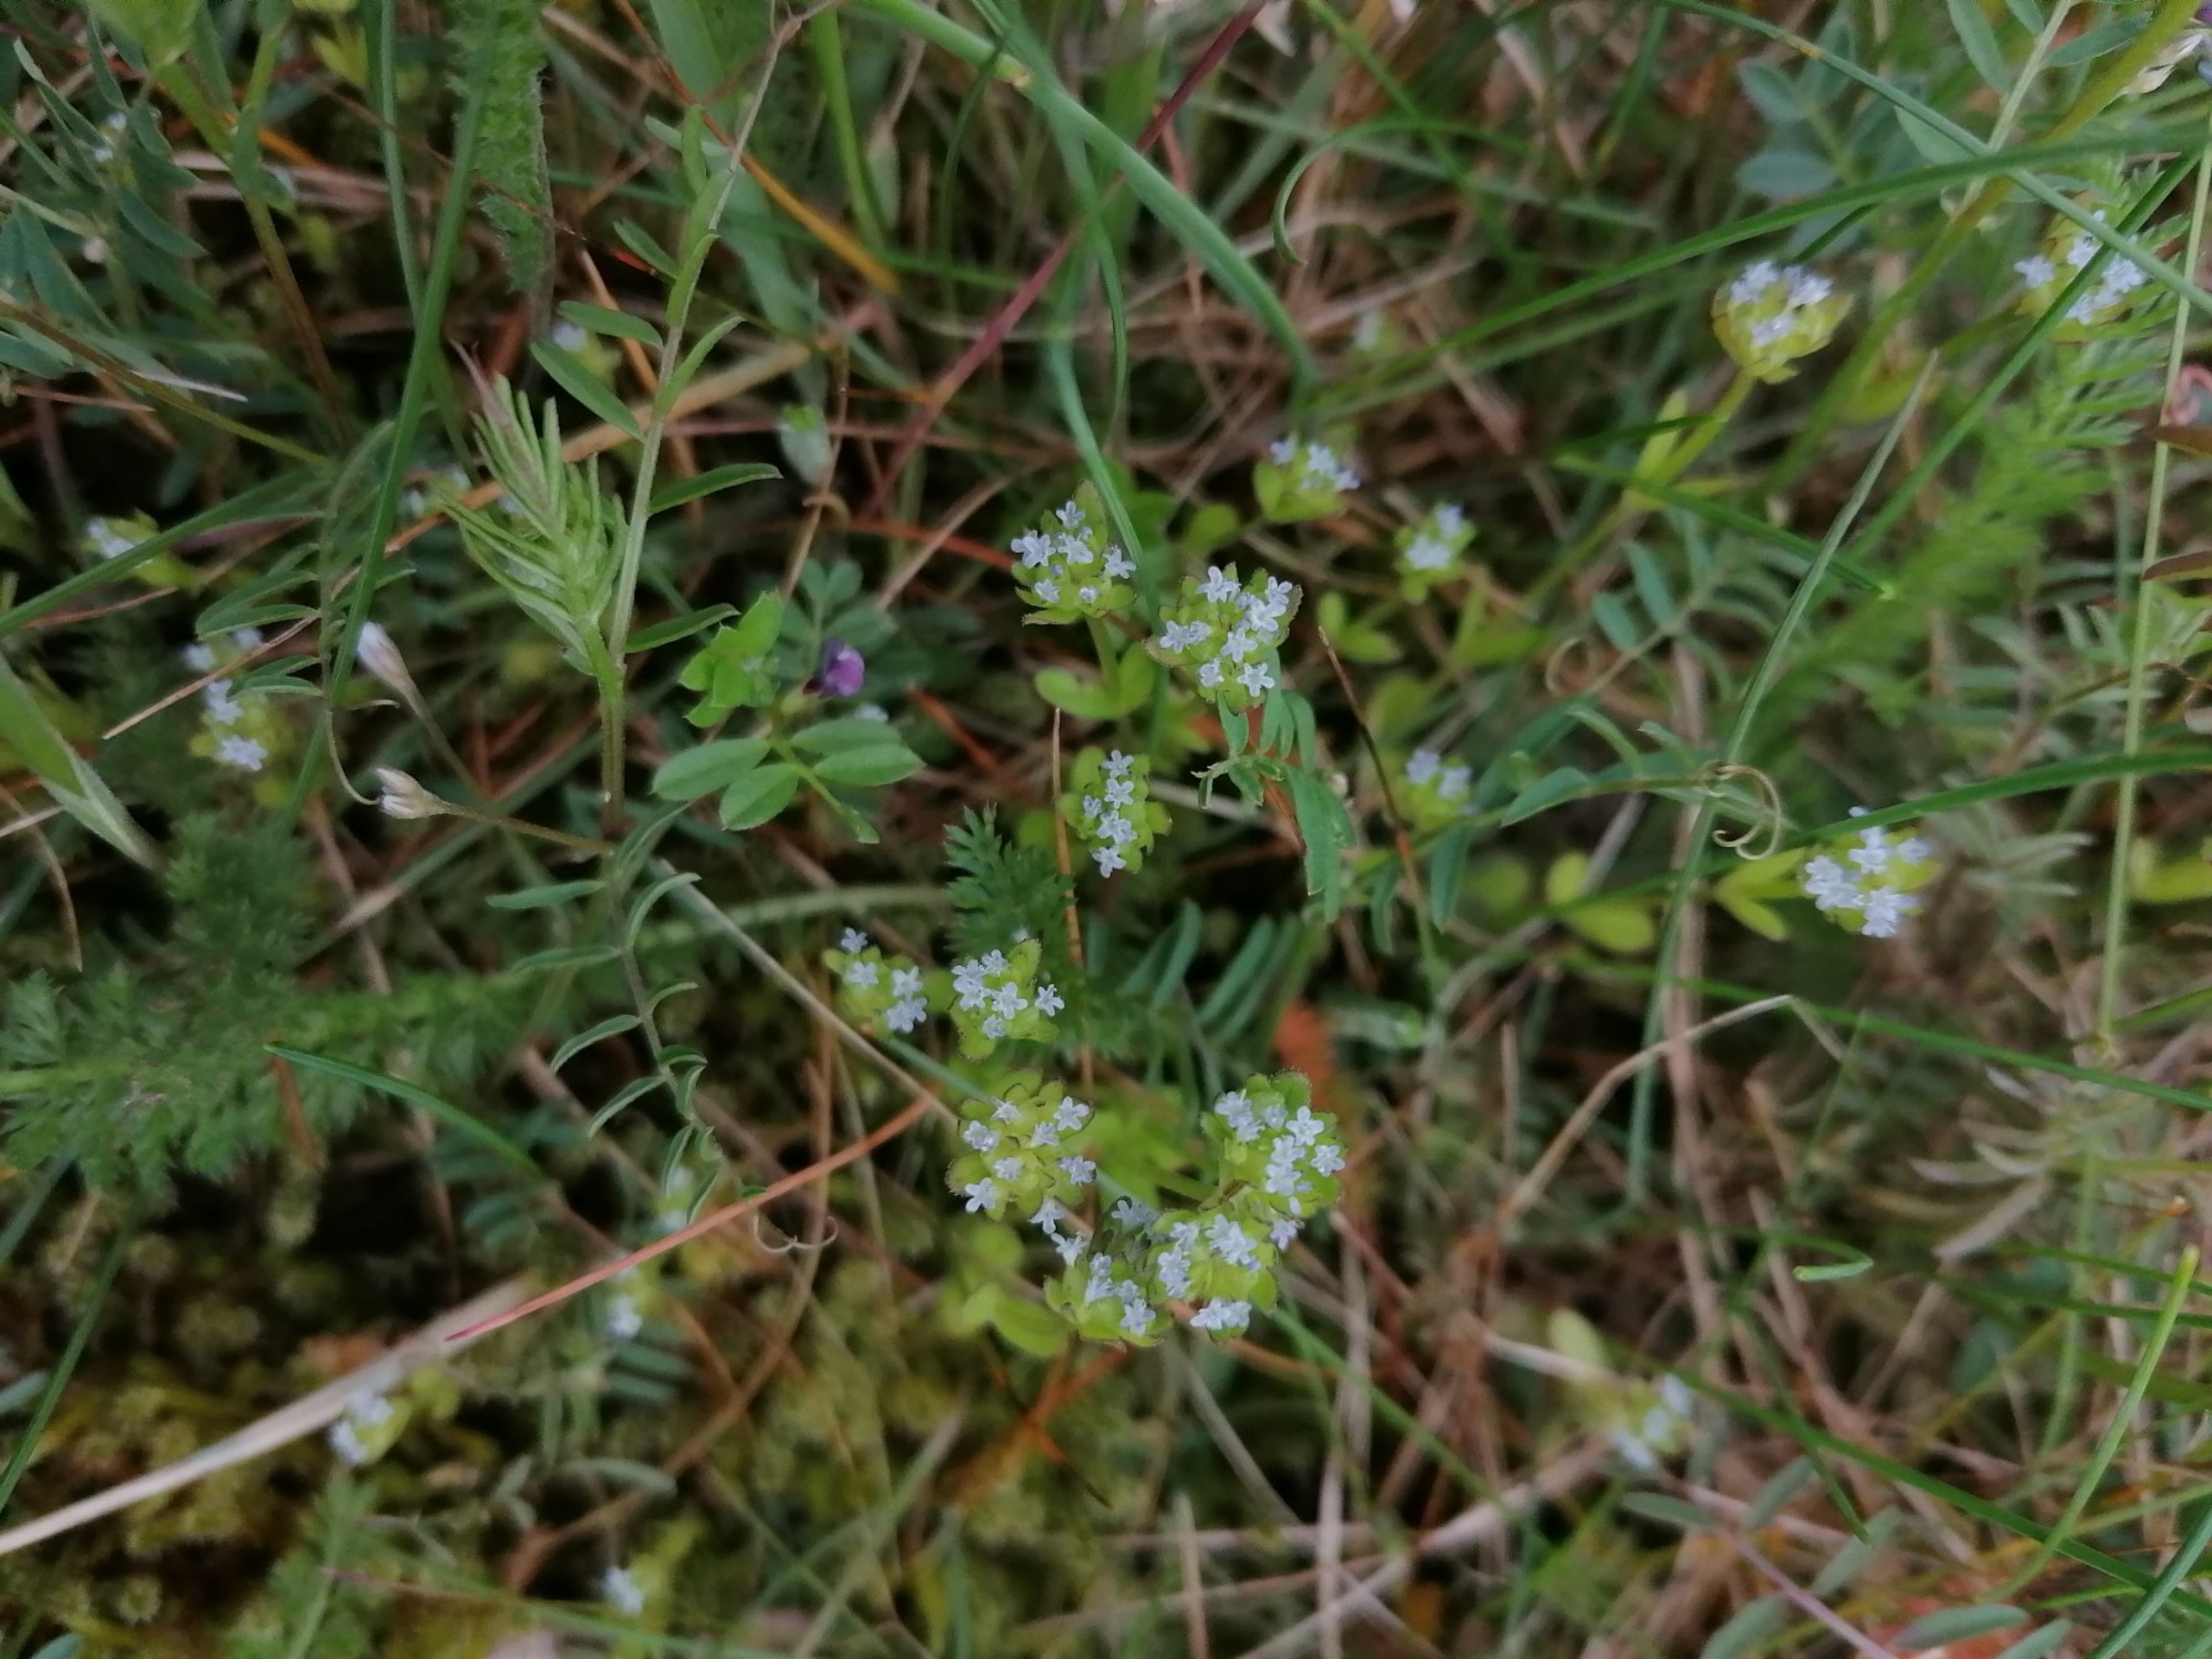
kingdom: Plantae
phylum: Tracheophyta
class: Magnoliopsida
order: Dipsacales
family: Caprifoliaceae
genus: Valerianella
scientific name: Valerianella locusta
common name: Tandfri vårsalat
